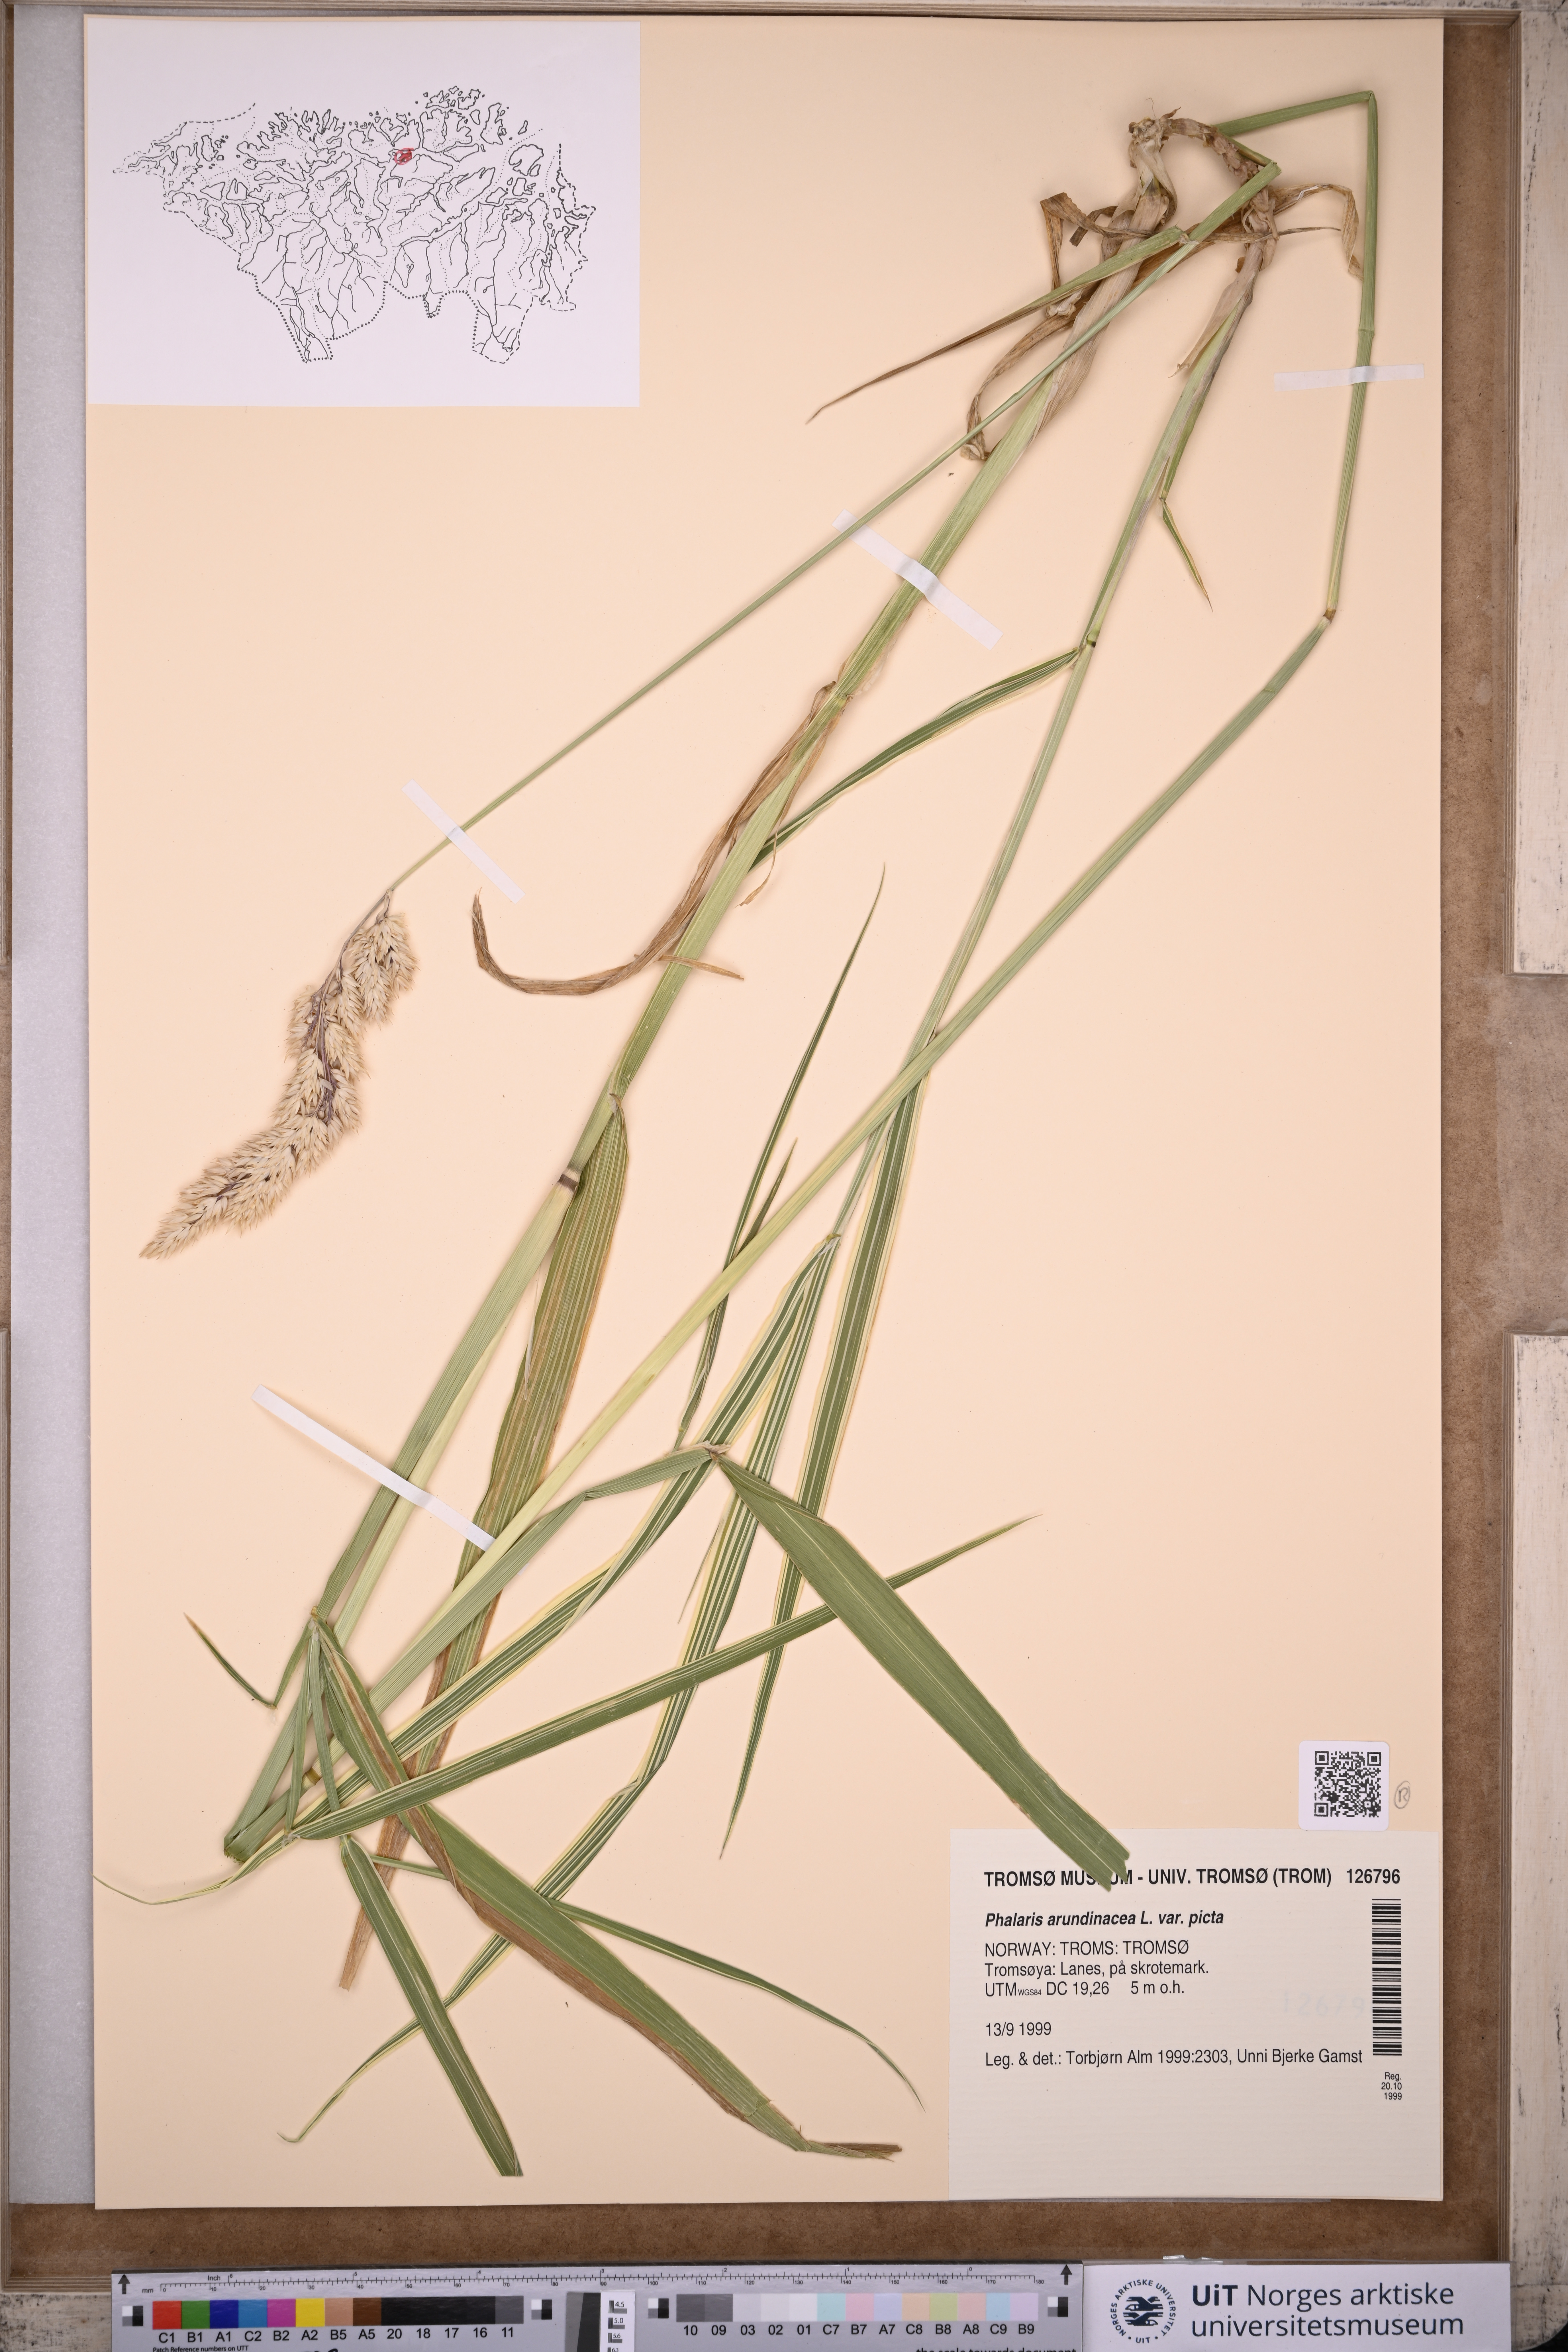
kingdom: Plantae
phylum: Tracheophyta
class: Liliopsida
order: Poales
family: Poaceae
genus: Phalaris
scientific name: Phalaris arundinacea
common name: Reed canary-grass
